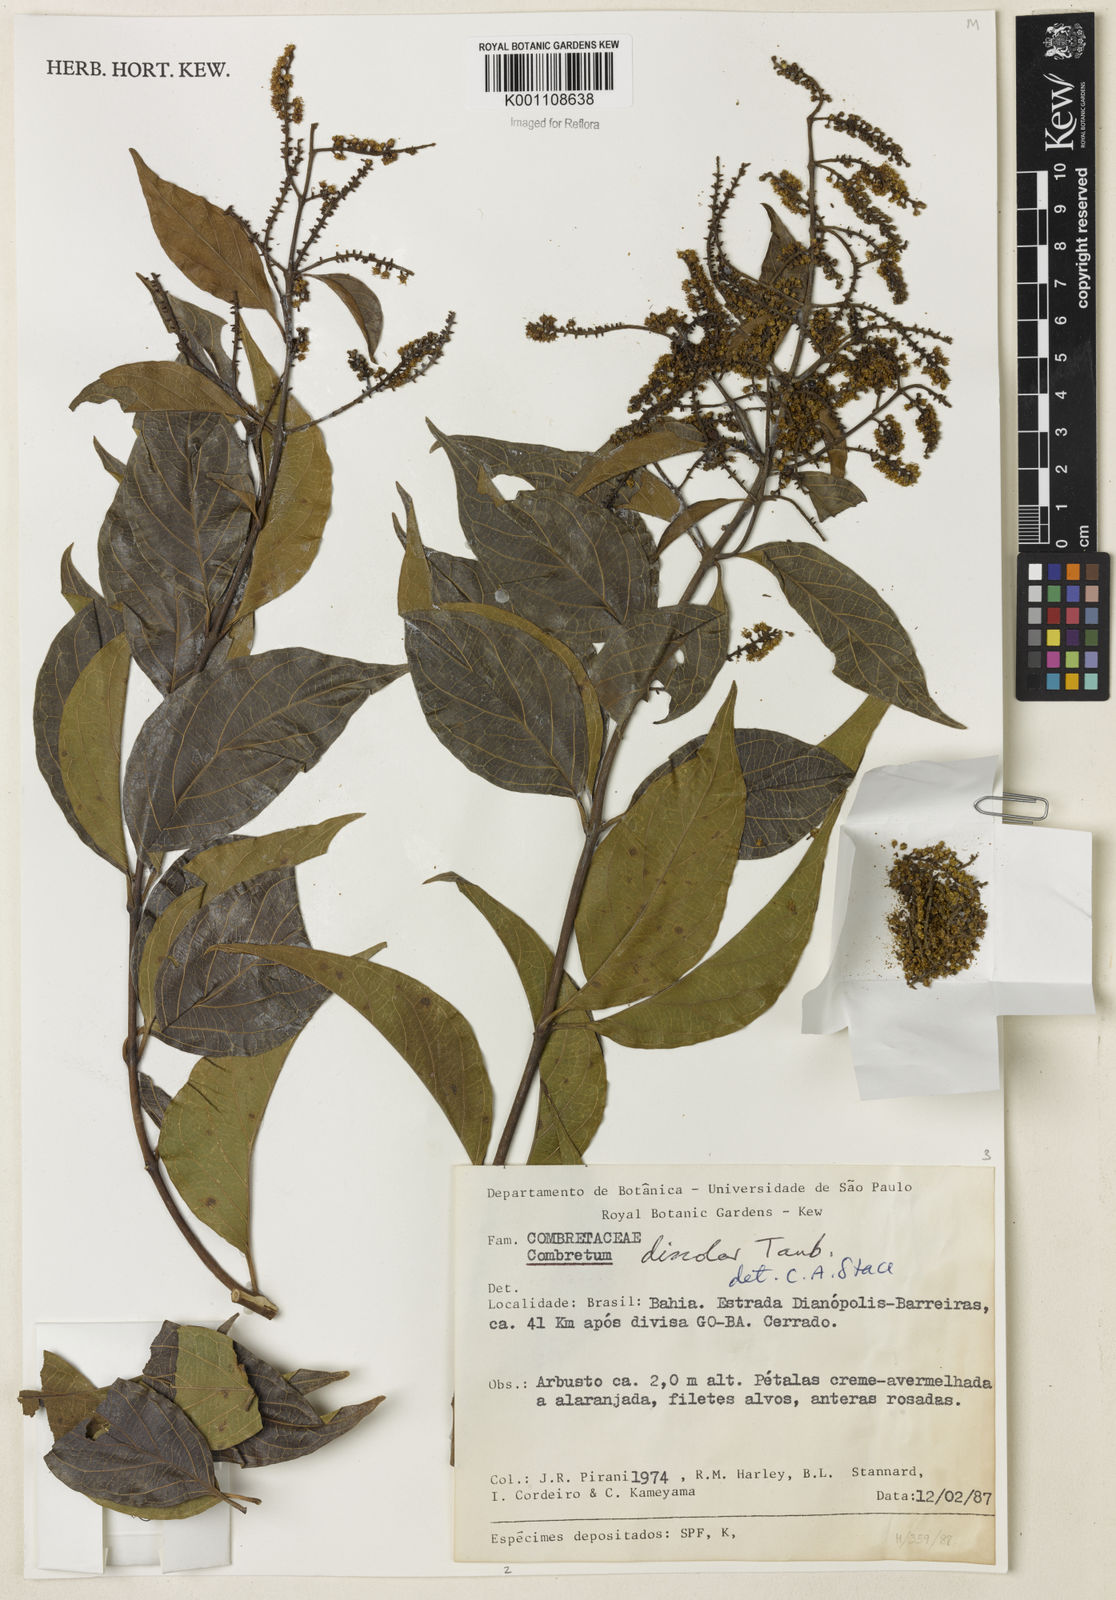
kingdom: Plantae
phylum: Tracheophyta
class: Magnoliopsida
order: Myrtales
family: Combretaceae
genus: Combretum
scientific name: Combretum discolor
